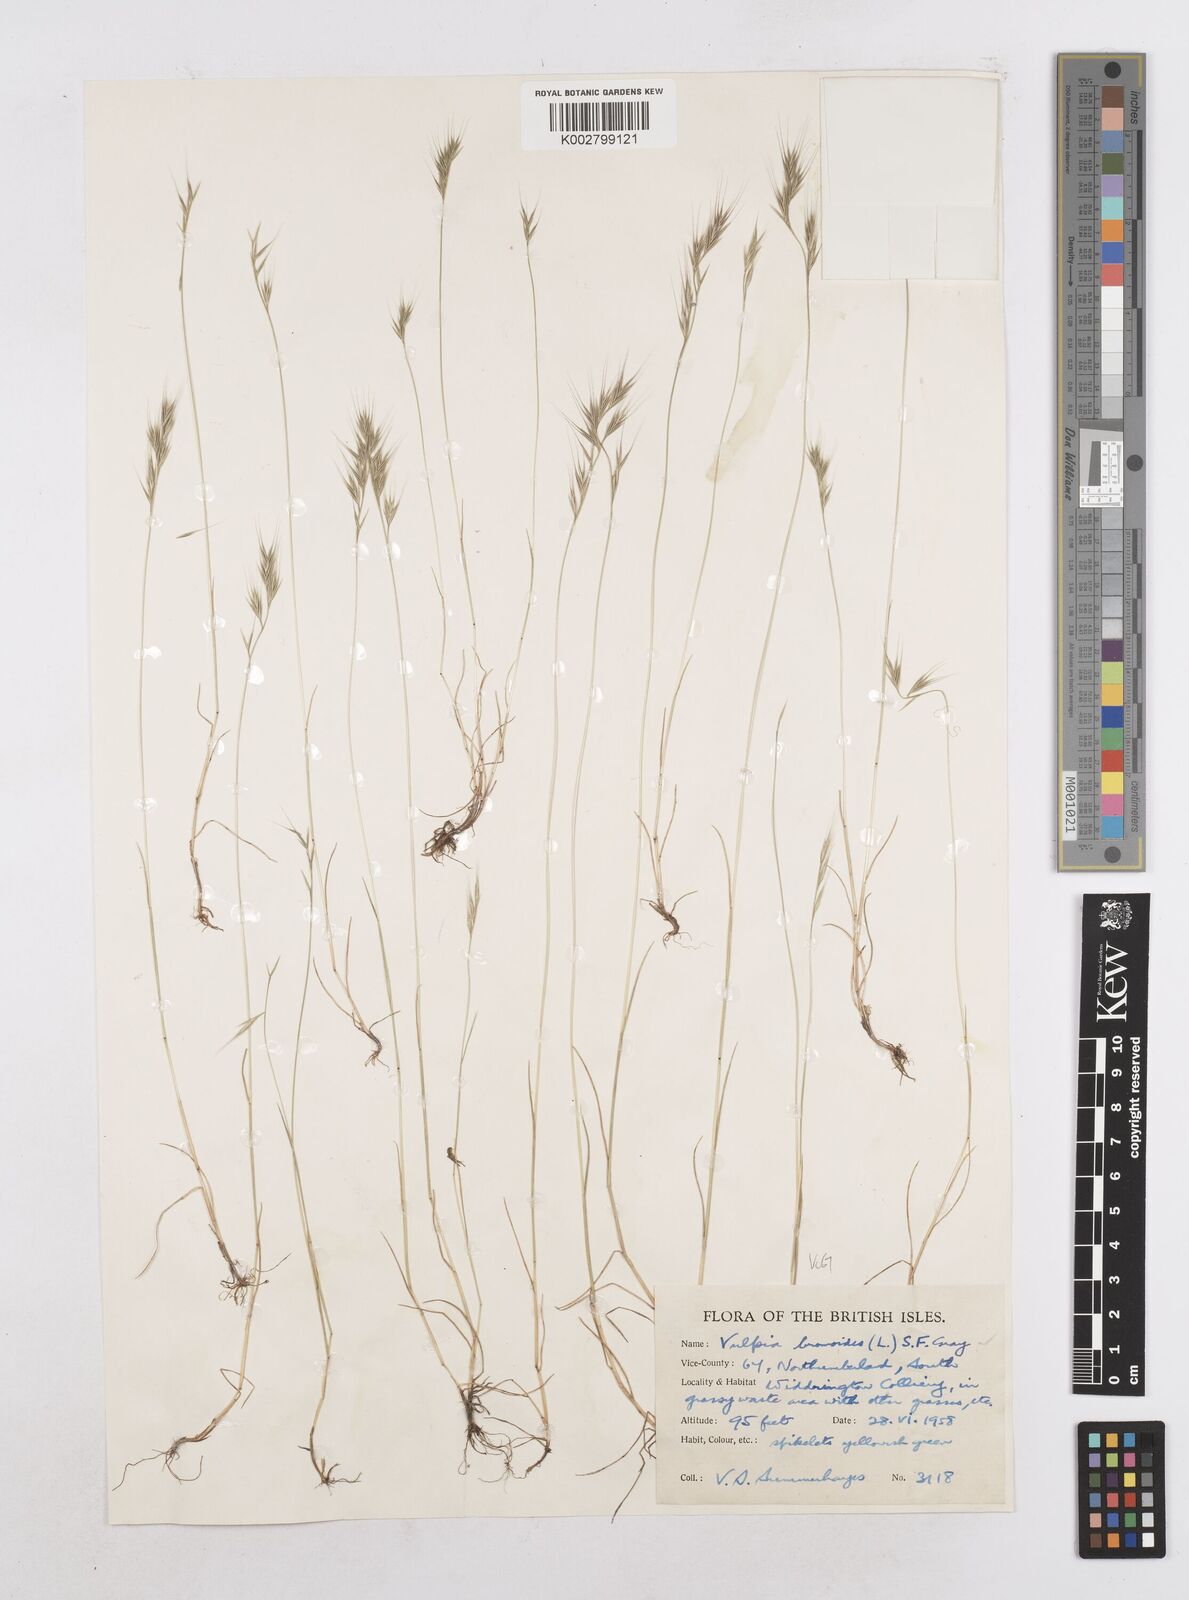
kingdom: Plantae
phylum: Tracheophyta
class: Liliopsida
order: Poales
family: Poaceae
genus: Festuca
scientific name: Festuca bromoides
